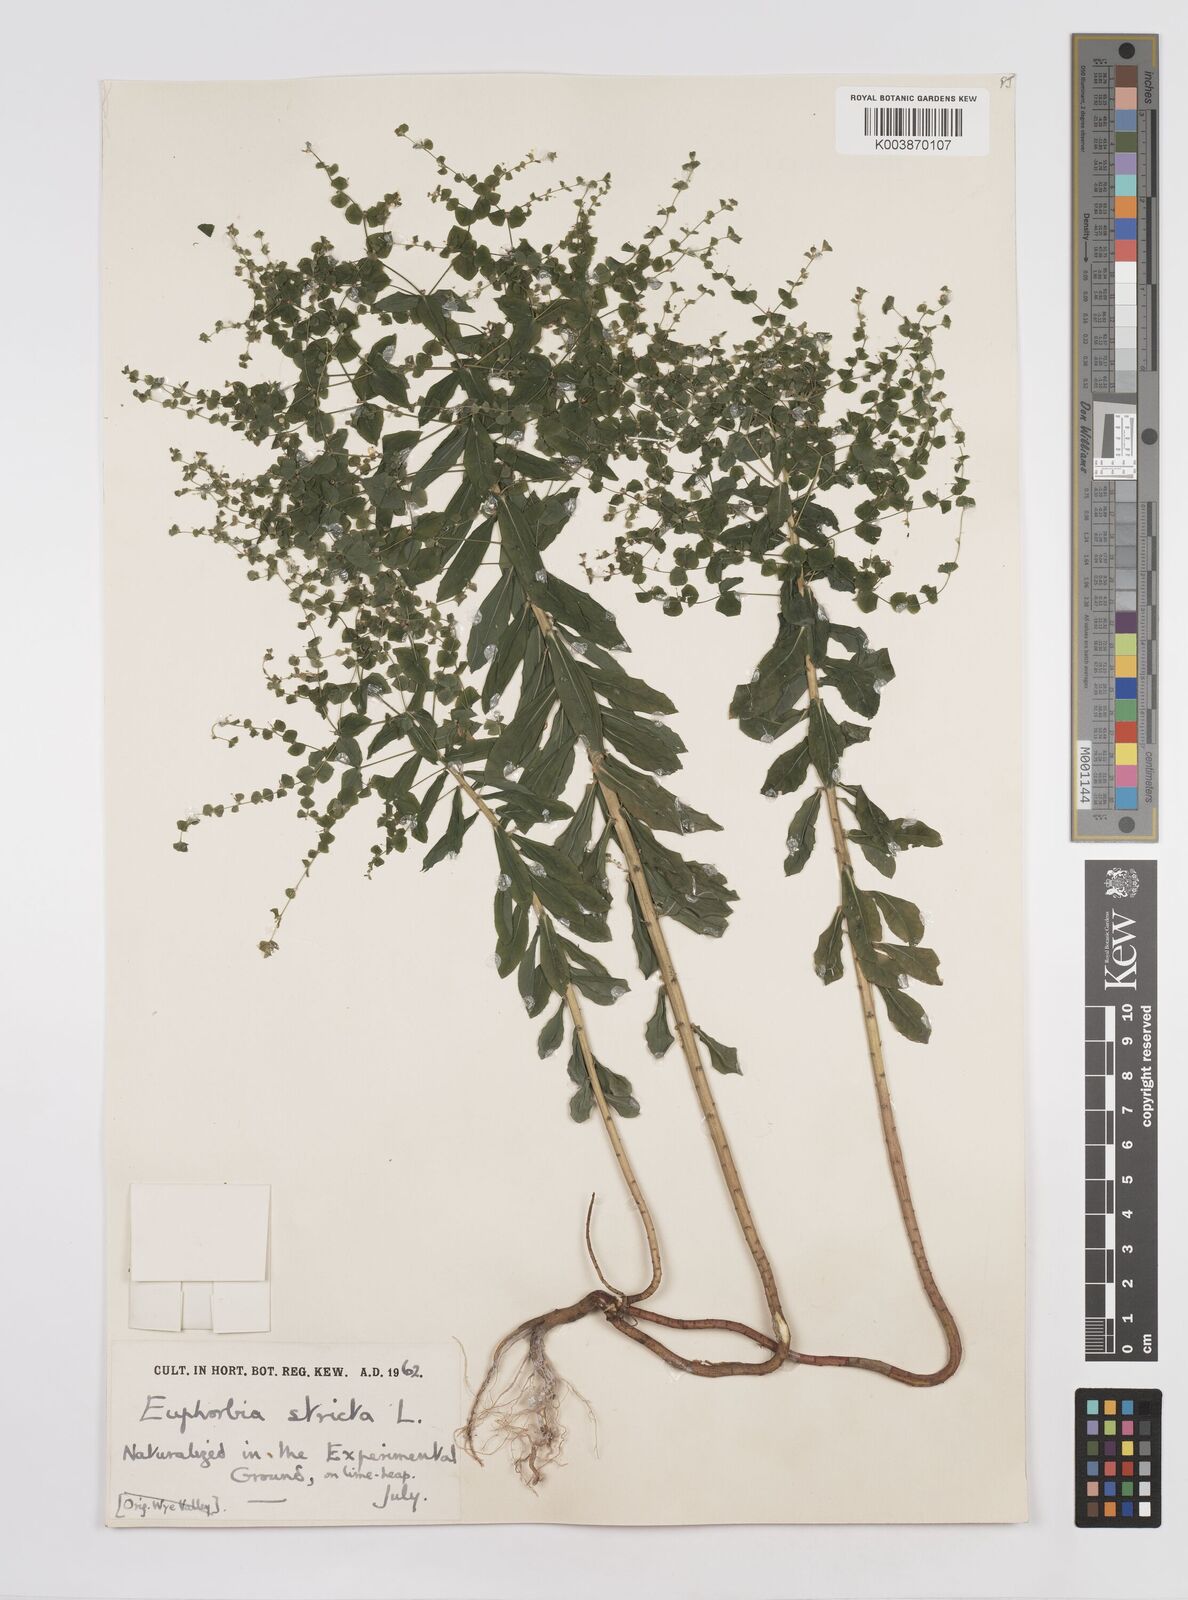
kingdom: Plantae
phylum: Tracheophyta
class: Magnoliopsida
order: Malpighiales
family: Euphorbiaceae
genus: Euphorbia
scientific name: Euphorbia stricta
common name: Upright spurge
